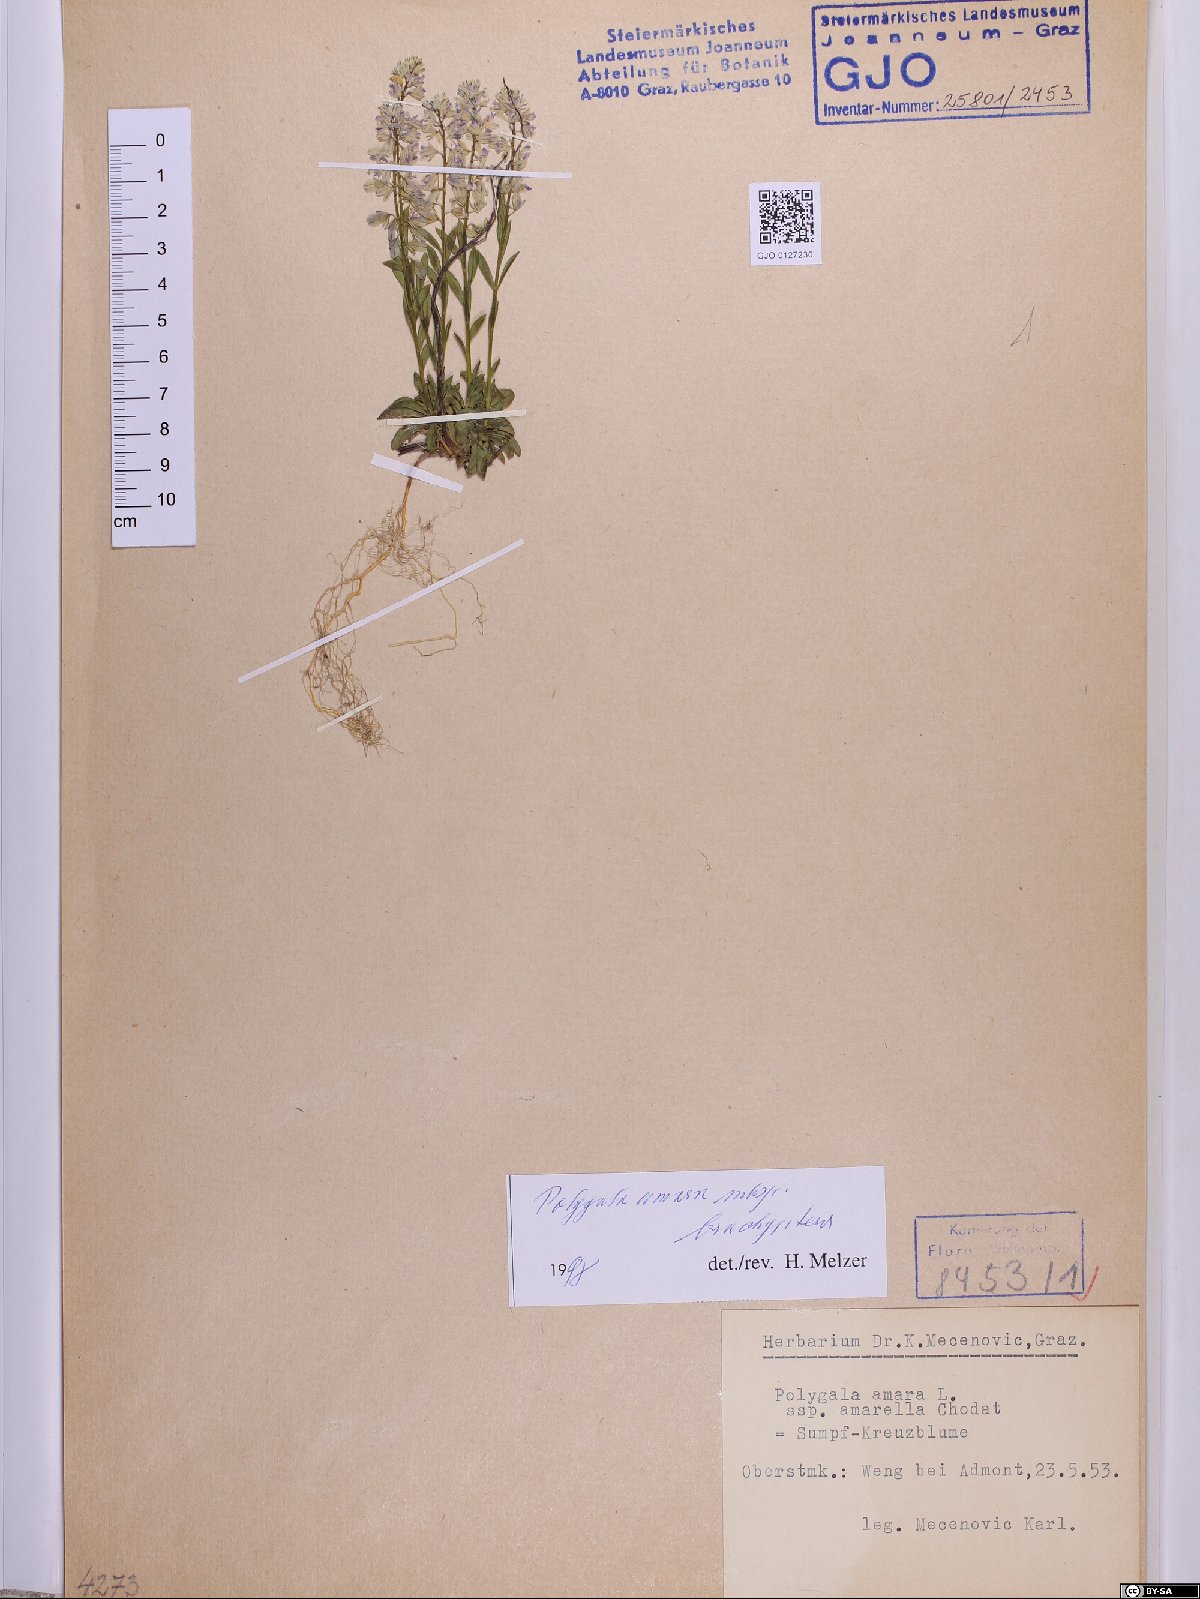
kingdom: Plantae
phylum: Tracheophyta
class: Magnoliopsida
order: Fabales
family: Polygalaceae
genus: Polygala
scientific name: Polygala amara
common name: Milkwort
